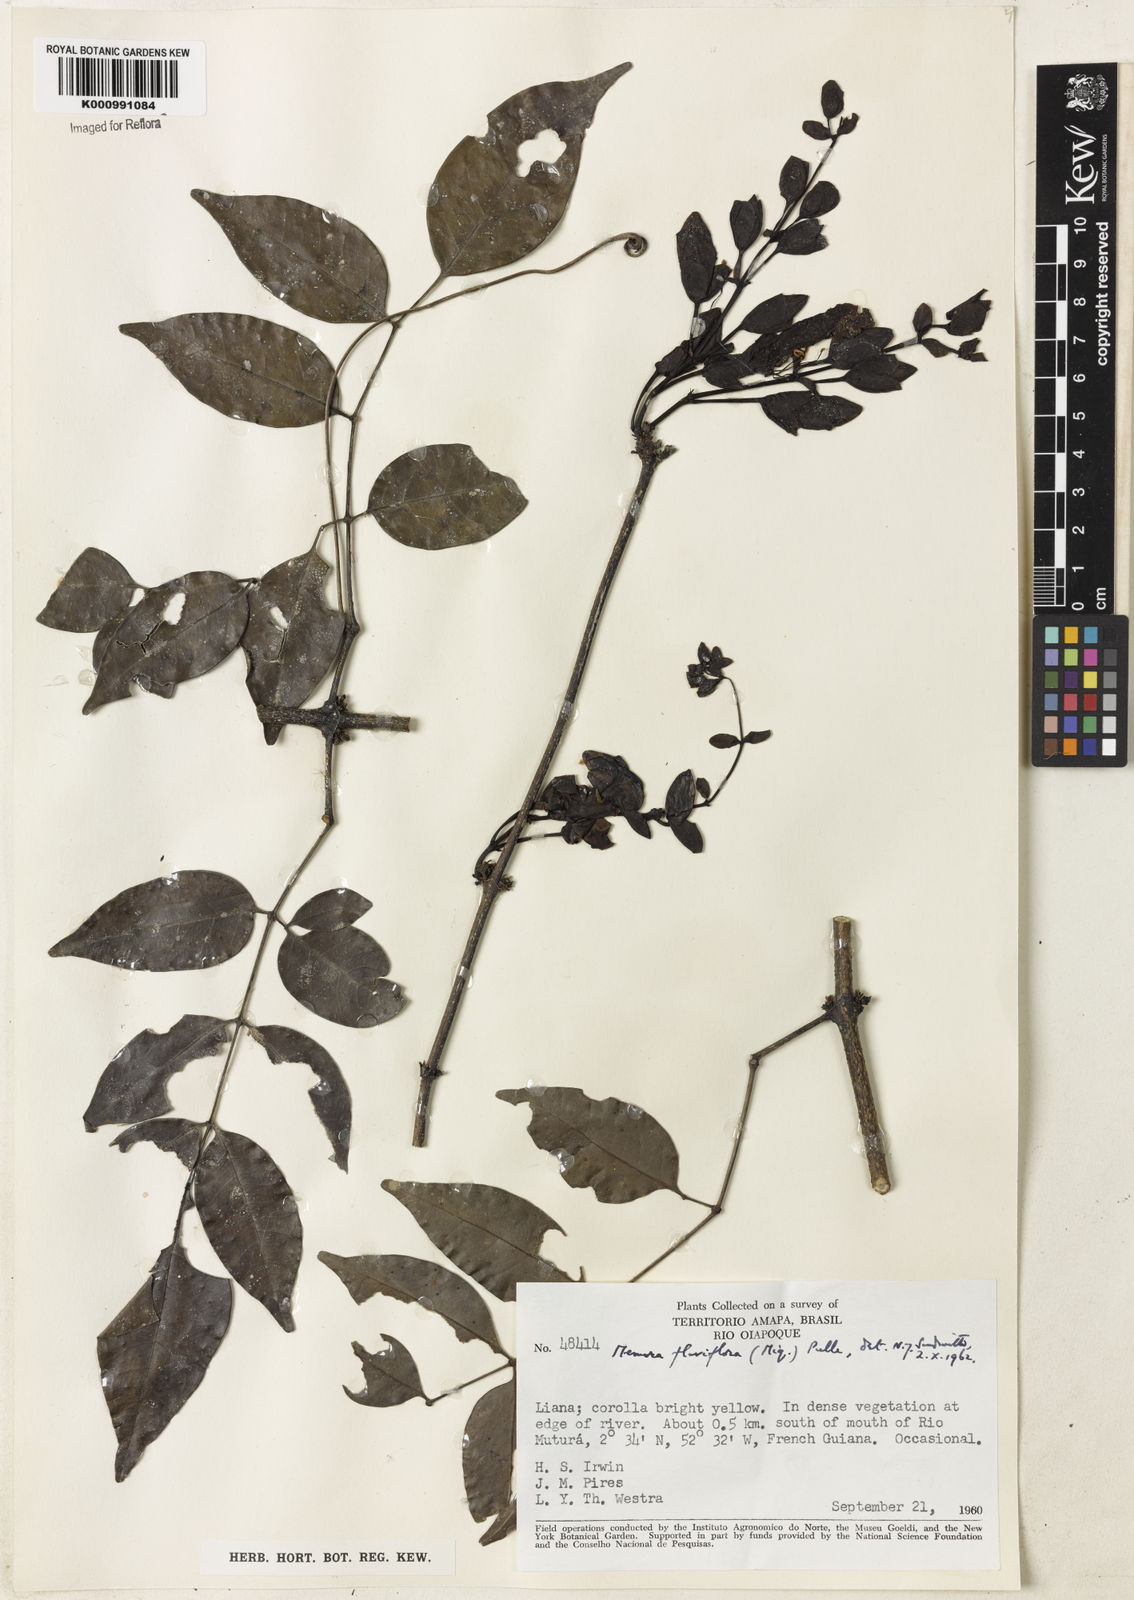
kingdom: Plantae
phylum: Tracheophyta
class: Magnoliopsida
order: Lamiales
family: Bignoniaceae
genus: Adenocalymma
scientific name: Adenocalymma flaviflorum
